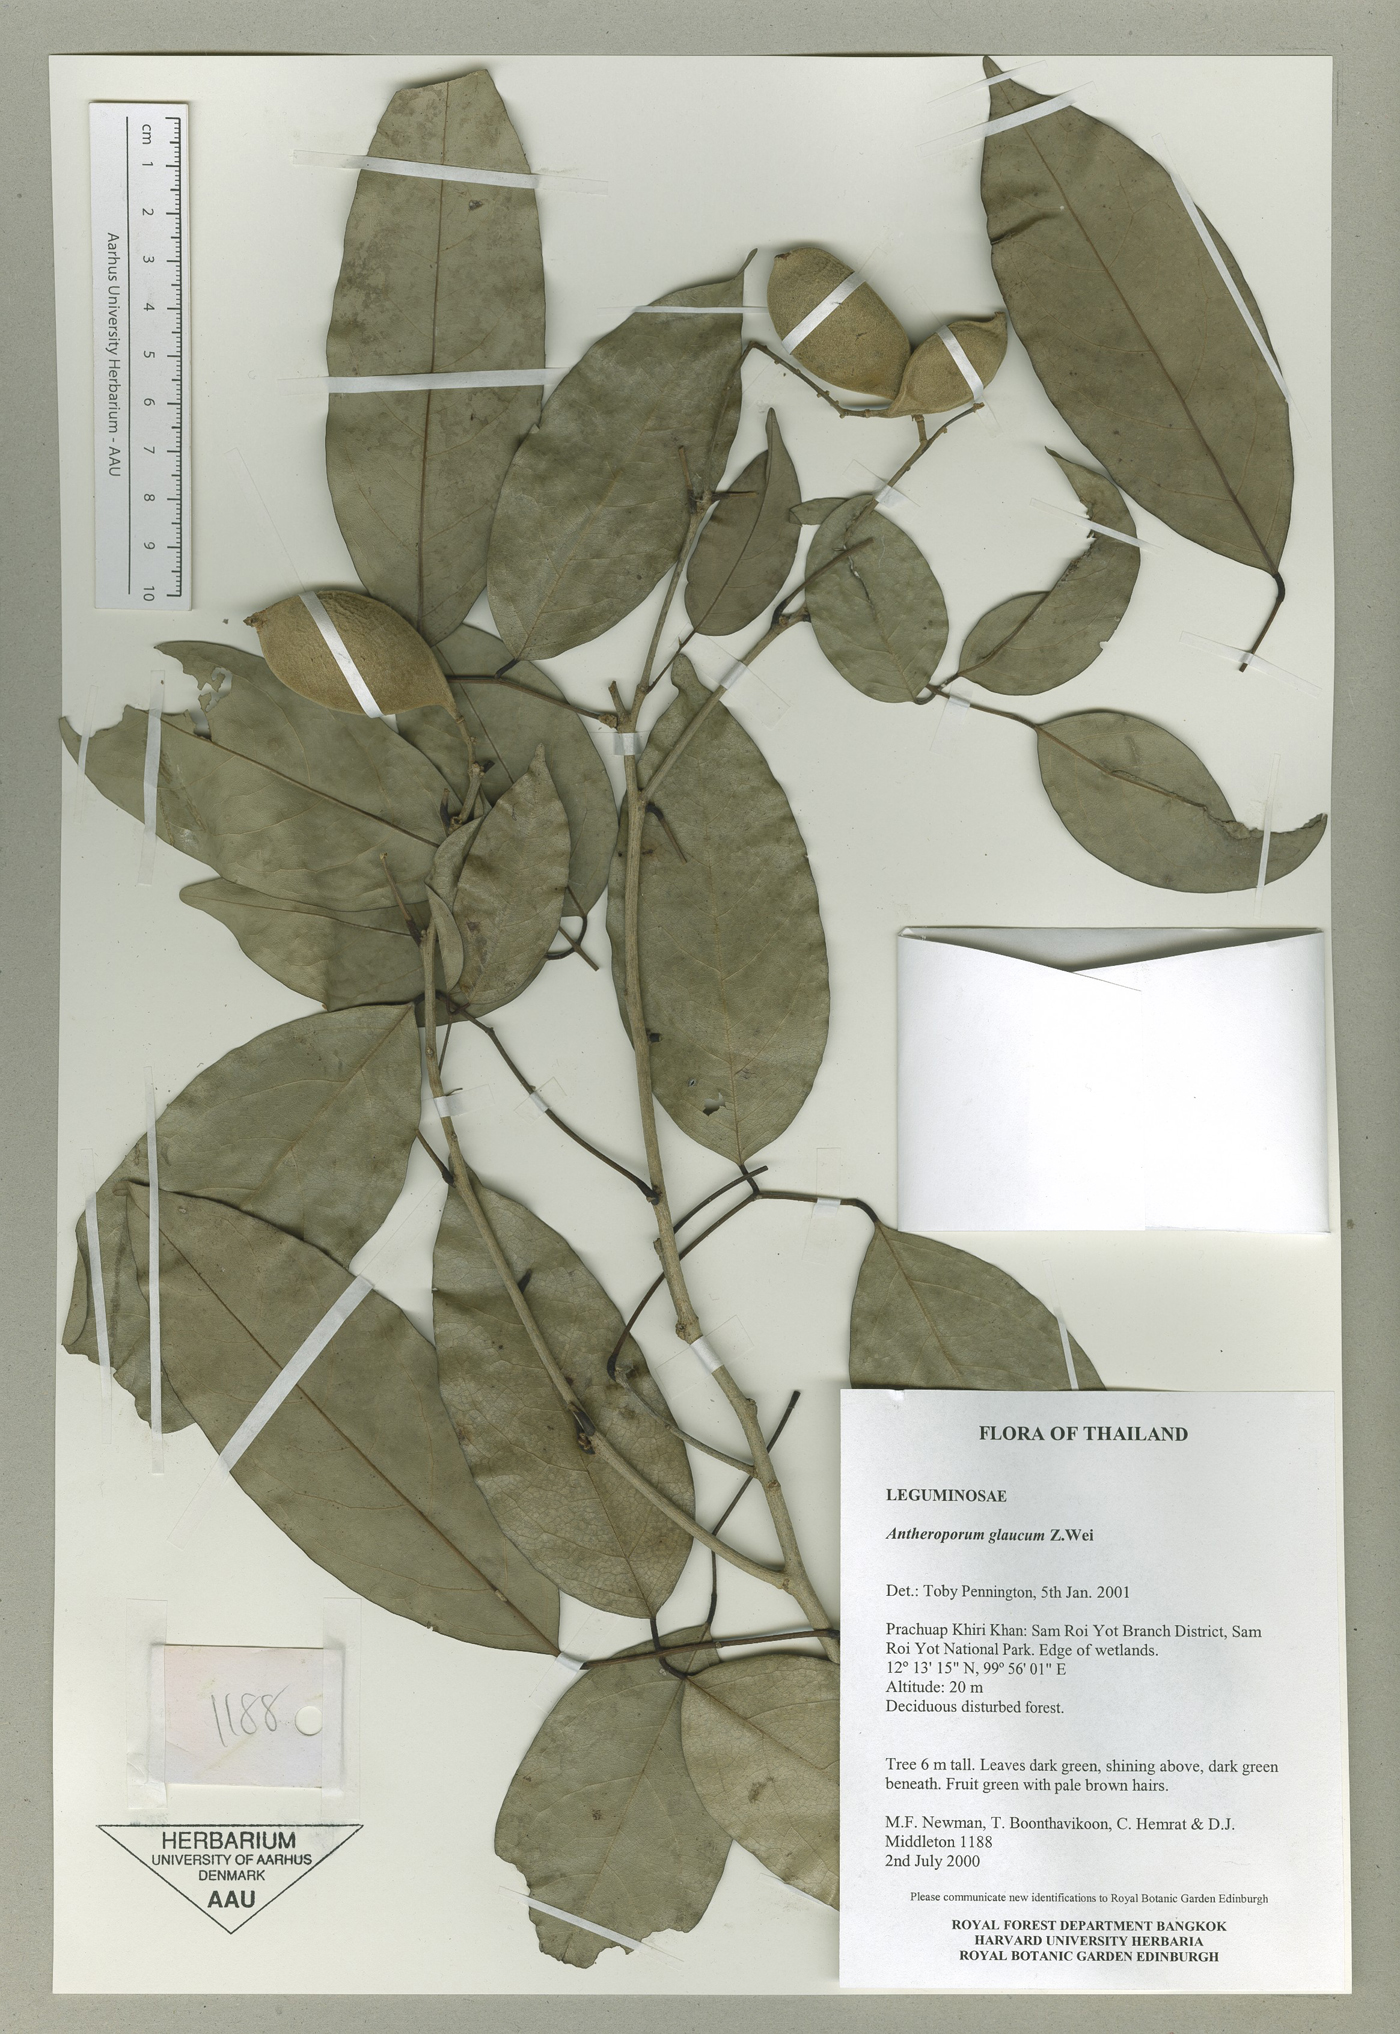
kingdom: Plantae
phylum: Tracheophyta
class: Magnoliopsida
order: Fabales
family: Fabaceae
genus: Antheroporum
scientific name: Antheroporum harmandii
